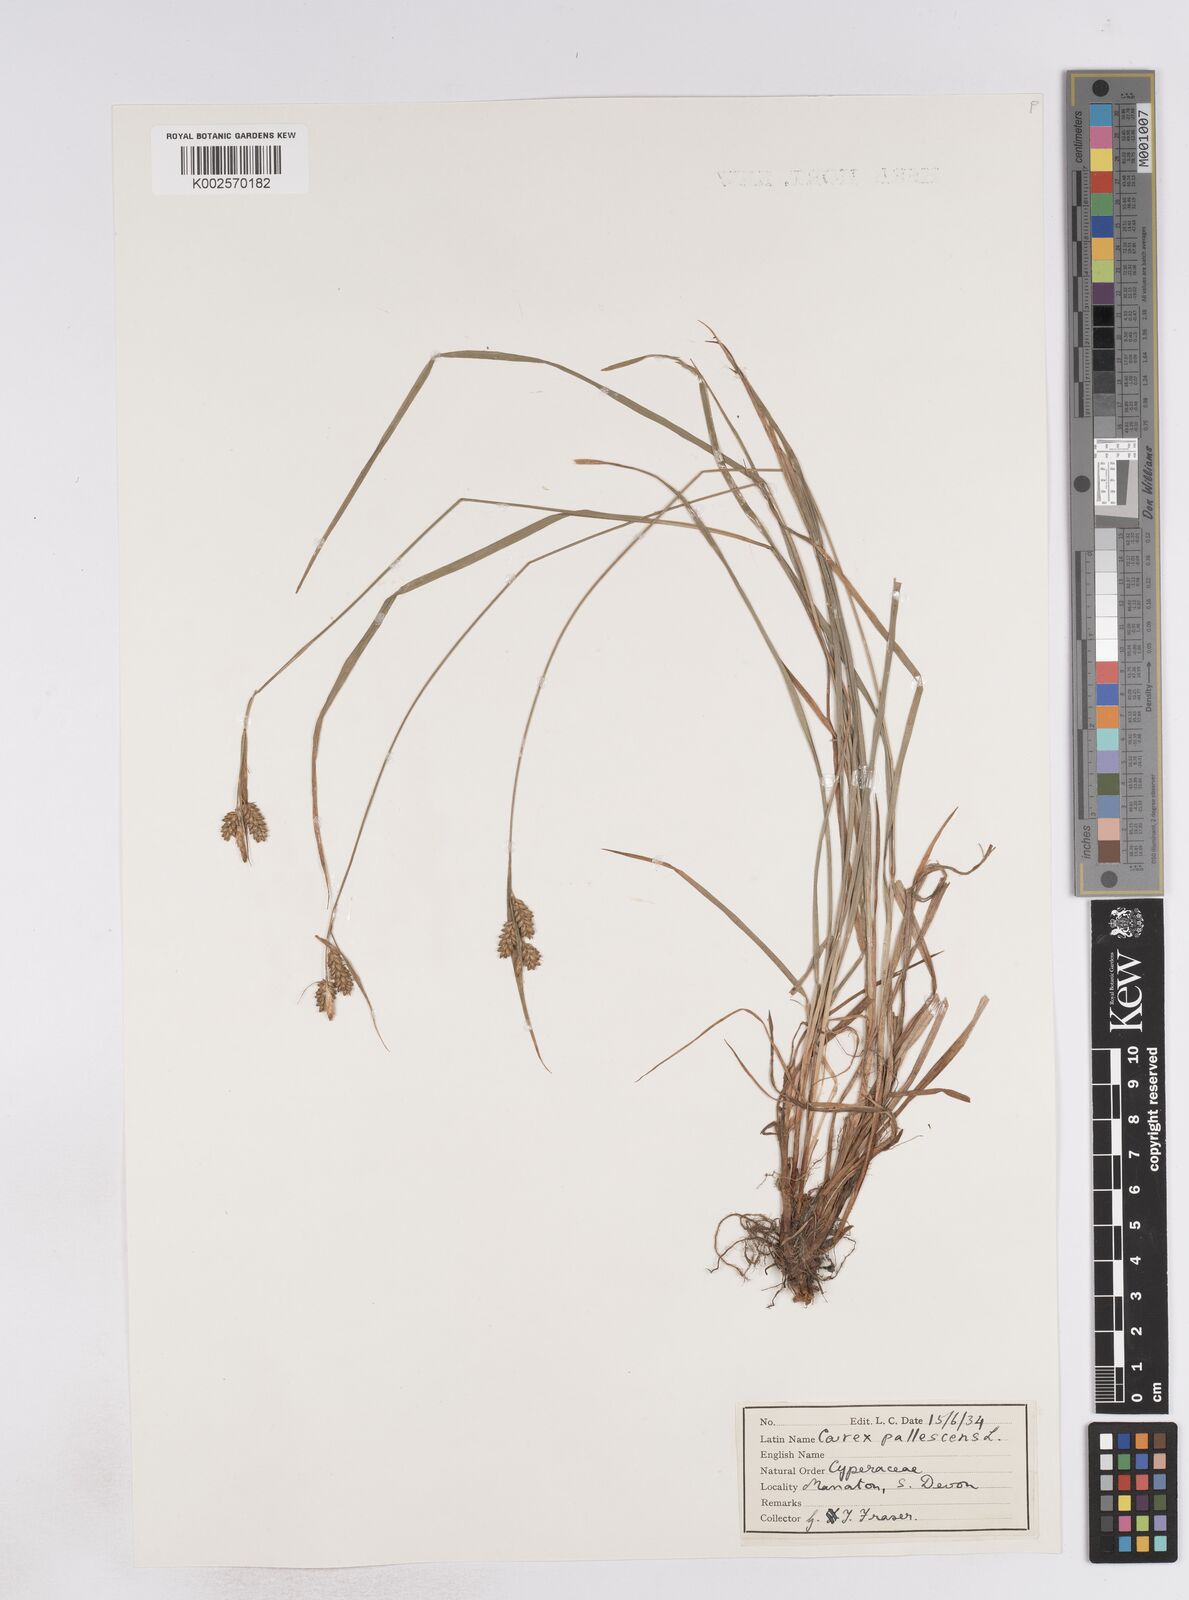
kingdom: Plantae
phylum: Tracheophyta
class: Liliopsida
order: Poales
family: Cyperaceae
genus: Carex
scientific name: Carex pallescens
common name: Pale sedge
